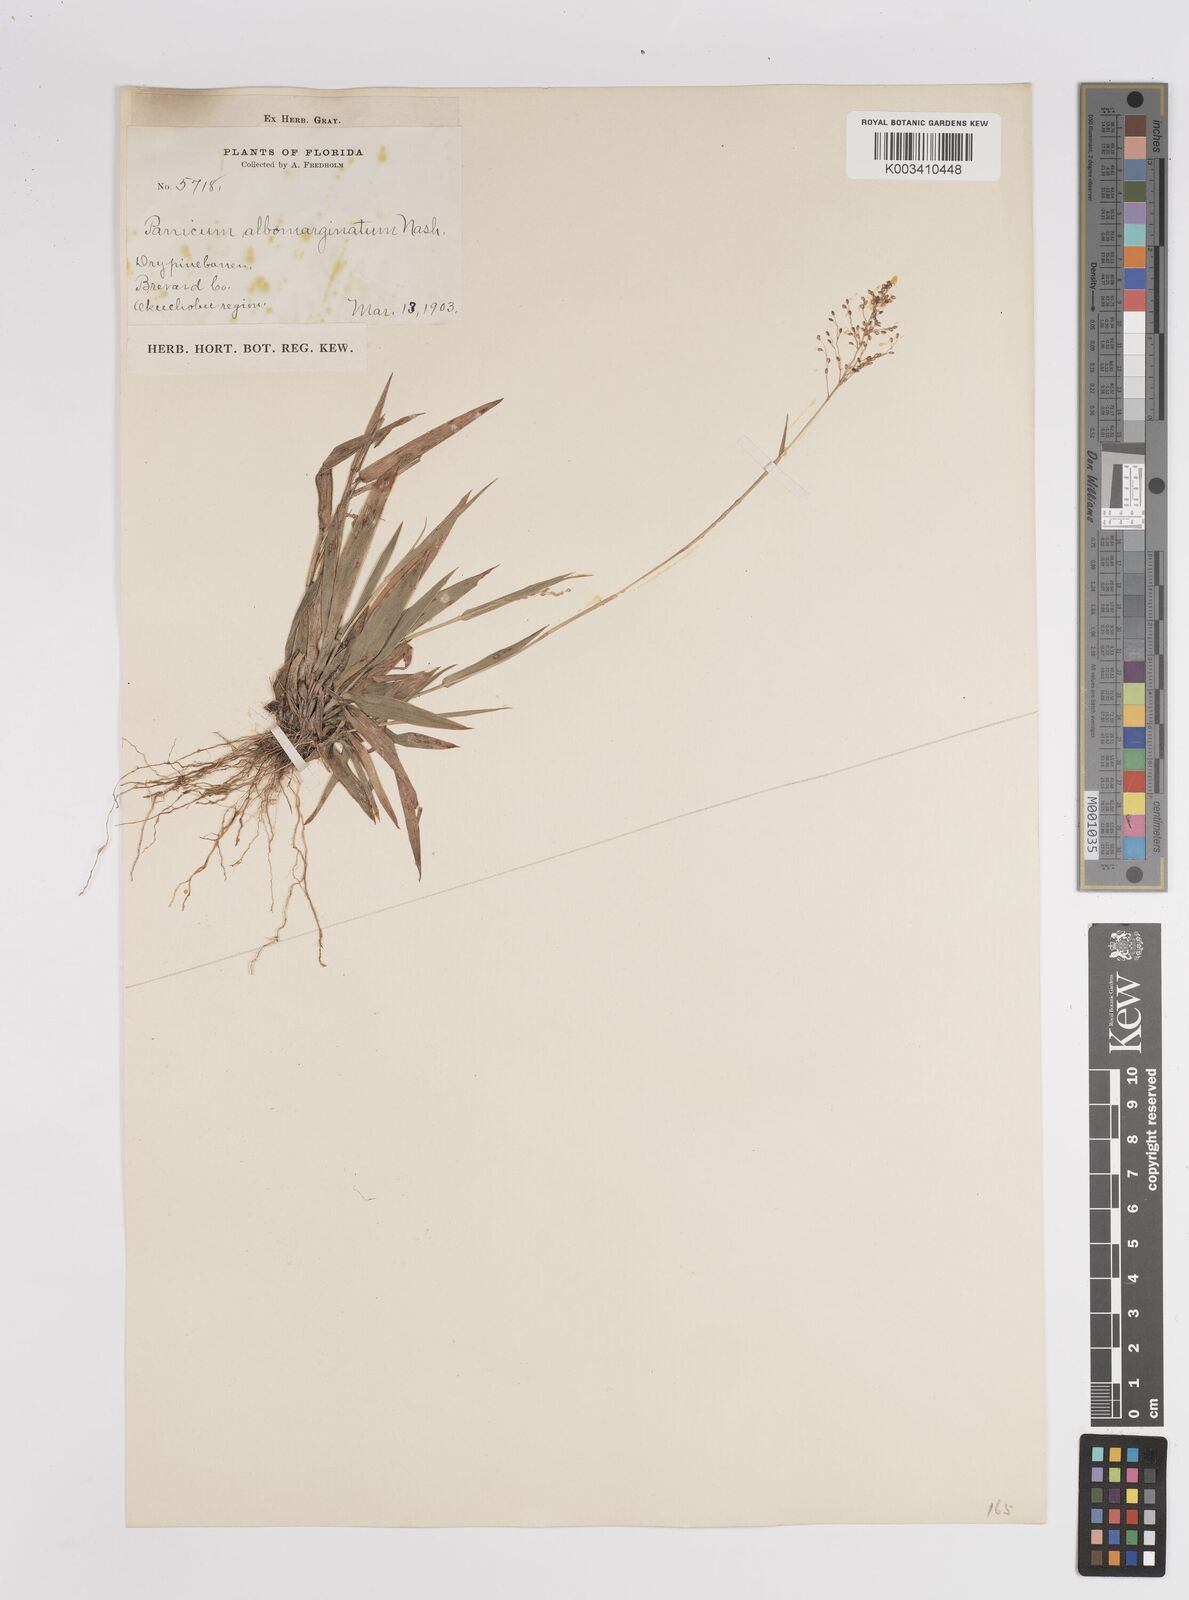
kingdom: Plantae
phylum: Tracheophyta
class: Liliopsida
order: Poales
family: Poaceae
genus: Dichanthelium
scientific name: Dichanthelium ensifolium
